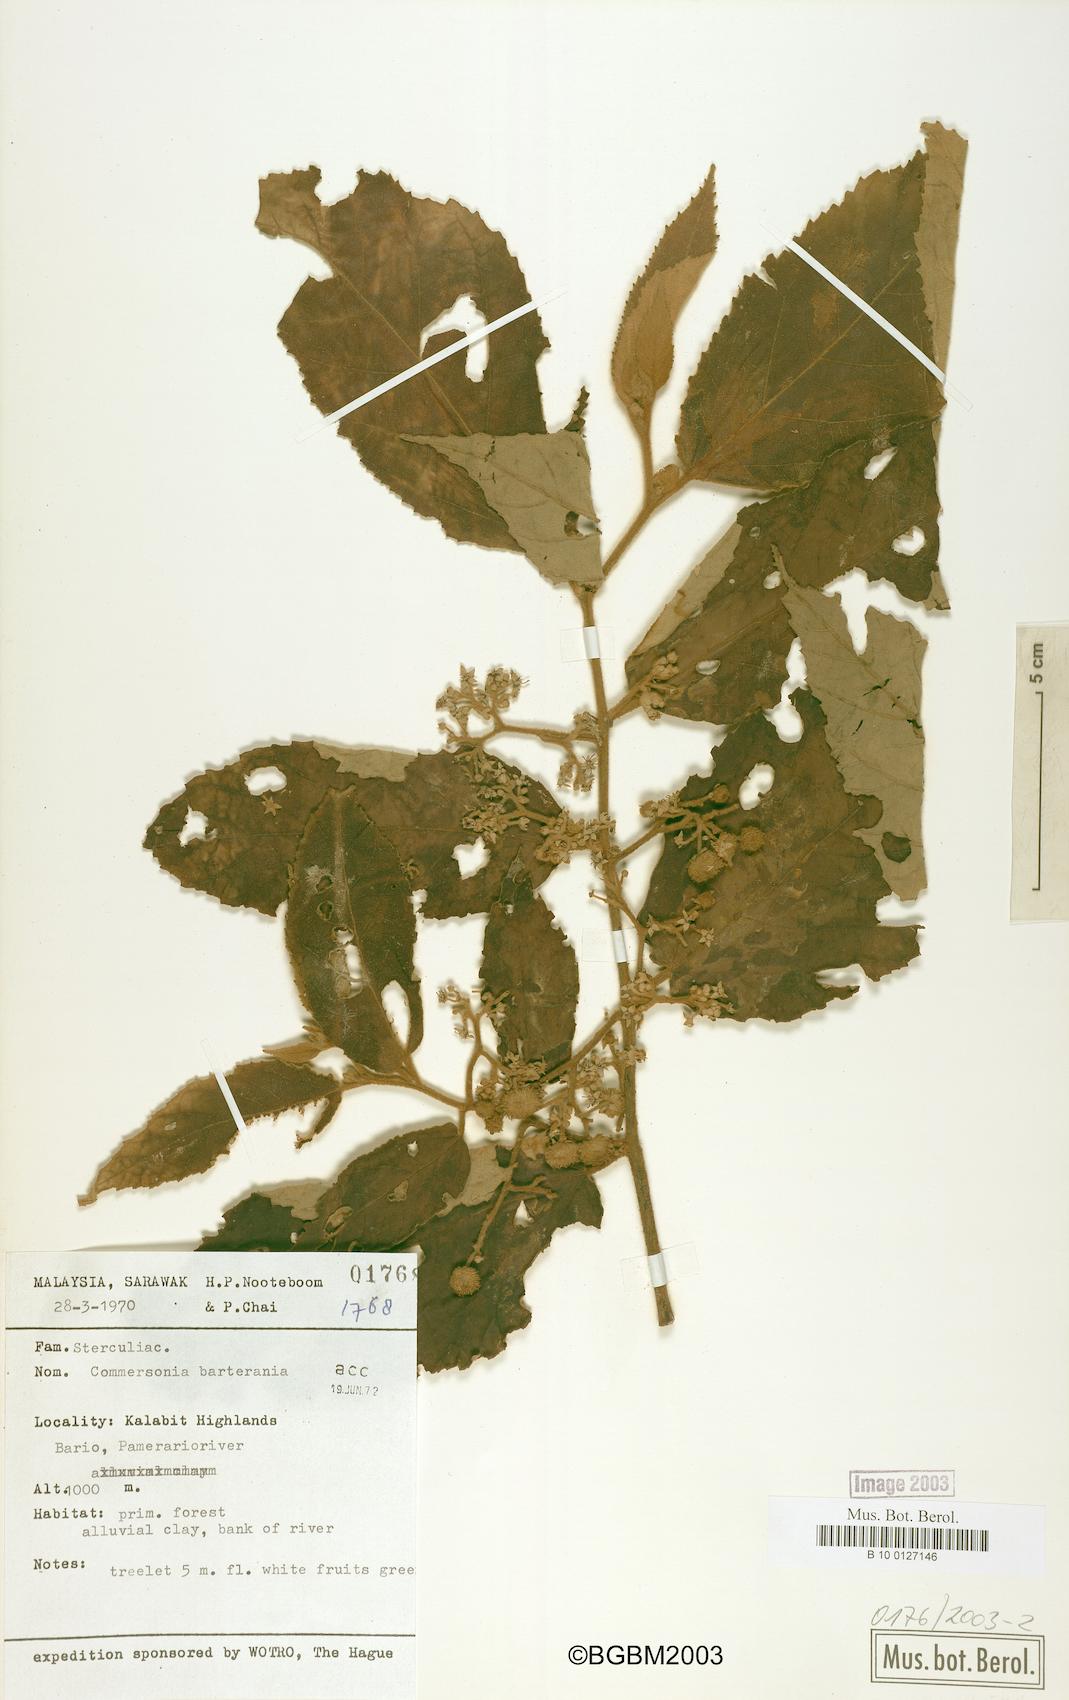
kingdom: Plantae
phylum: Tracheophyta
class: Magnoliopsida
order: Malvales
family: Malvaceae
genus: Commersonia
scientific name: Commersonia
